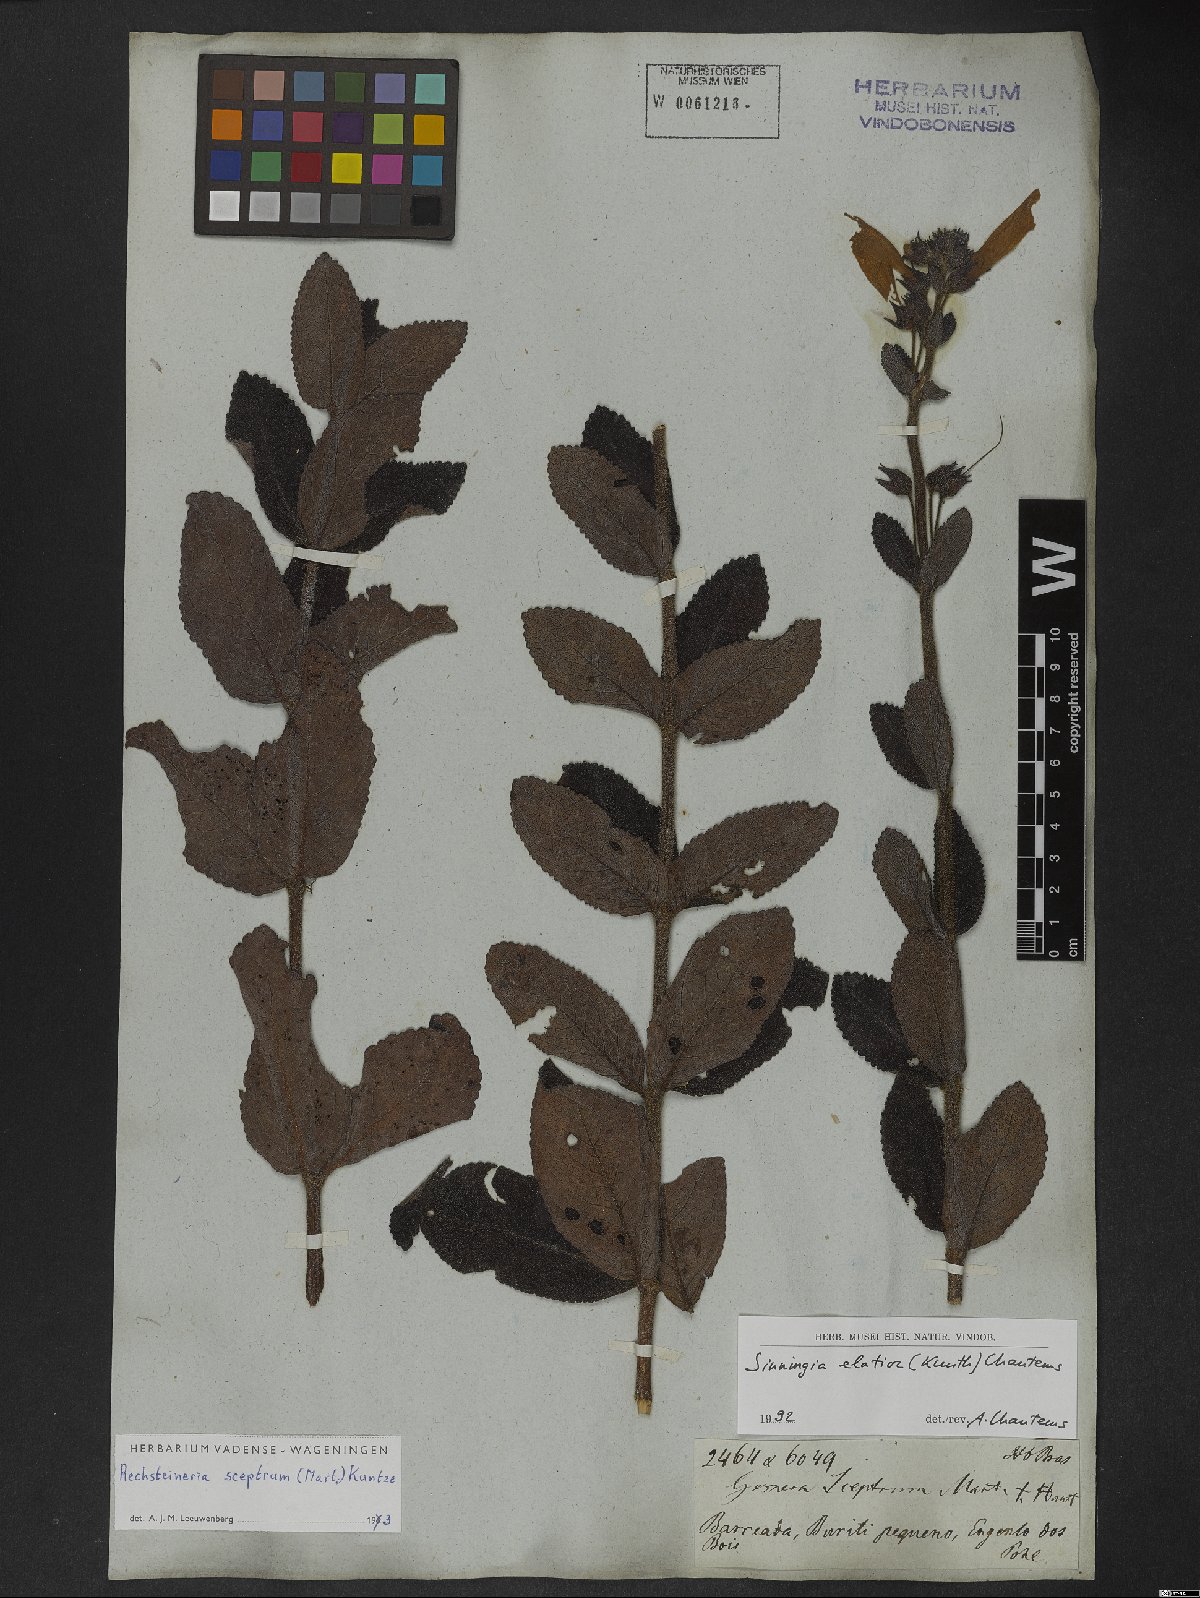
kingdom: Plantae
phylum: Tracheophyta
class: Magnoliopsida
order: Lamiales
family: Gesneriaceae
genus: Sinningia
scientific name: Sinningia elatior
